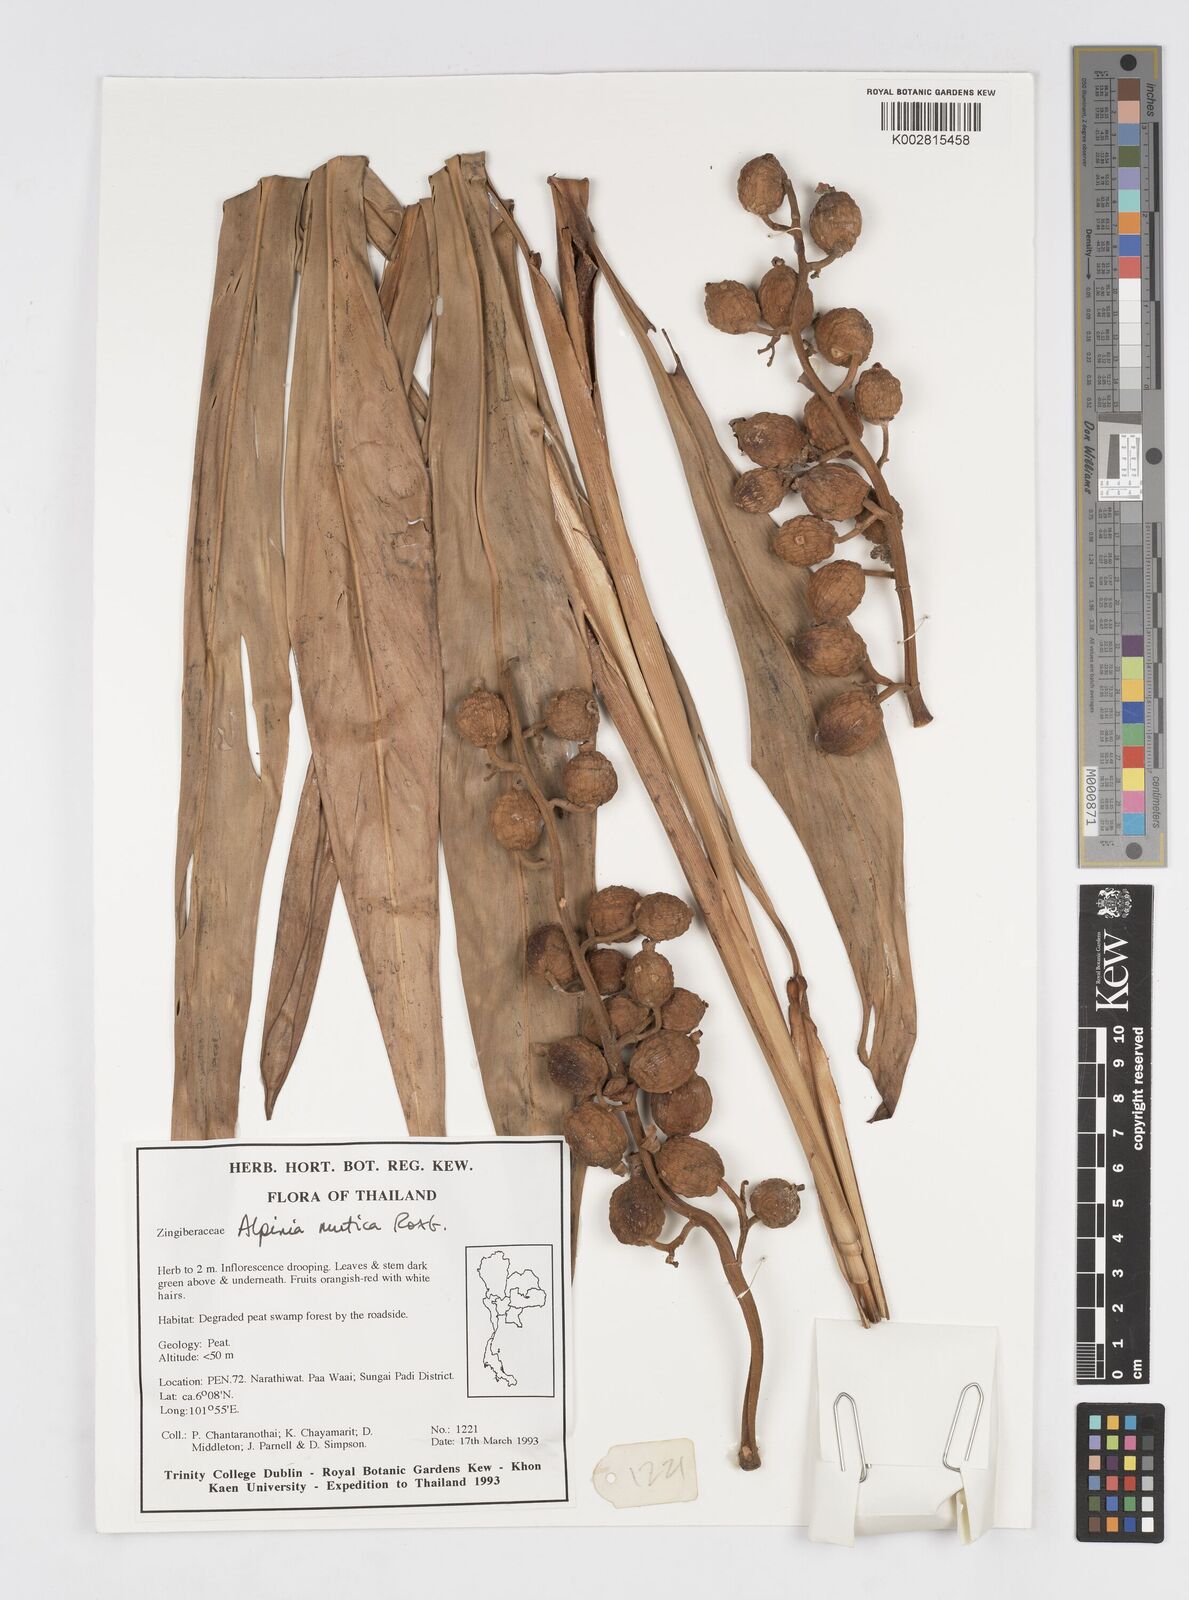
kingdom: Plantae
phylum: Tracheophyta
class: Liliopsida
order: Zingiberales
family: Zingiberaceae
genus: Alpinia
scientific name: Alpinia mutica
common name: Small shell ginger
